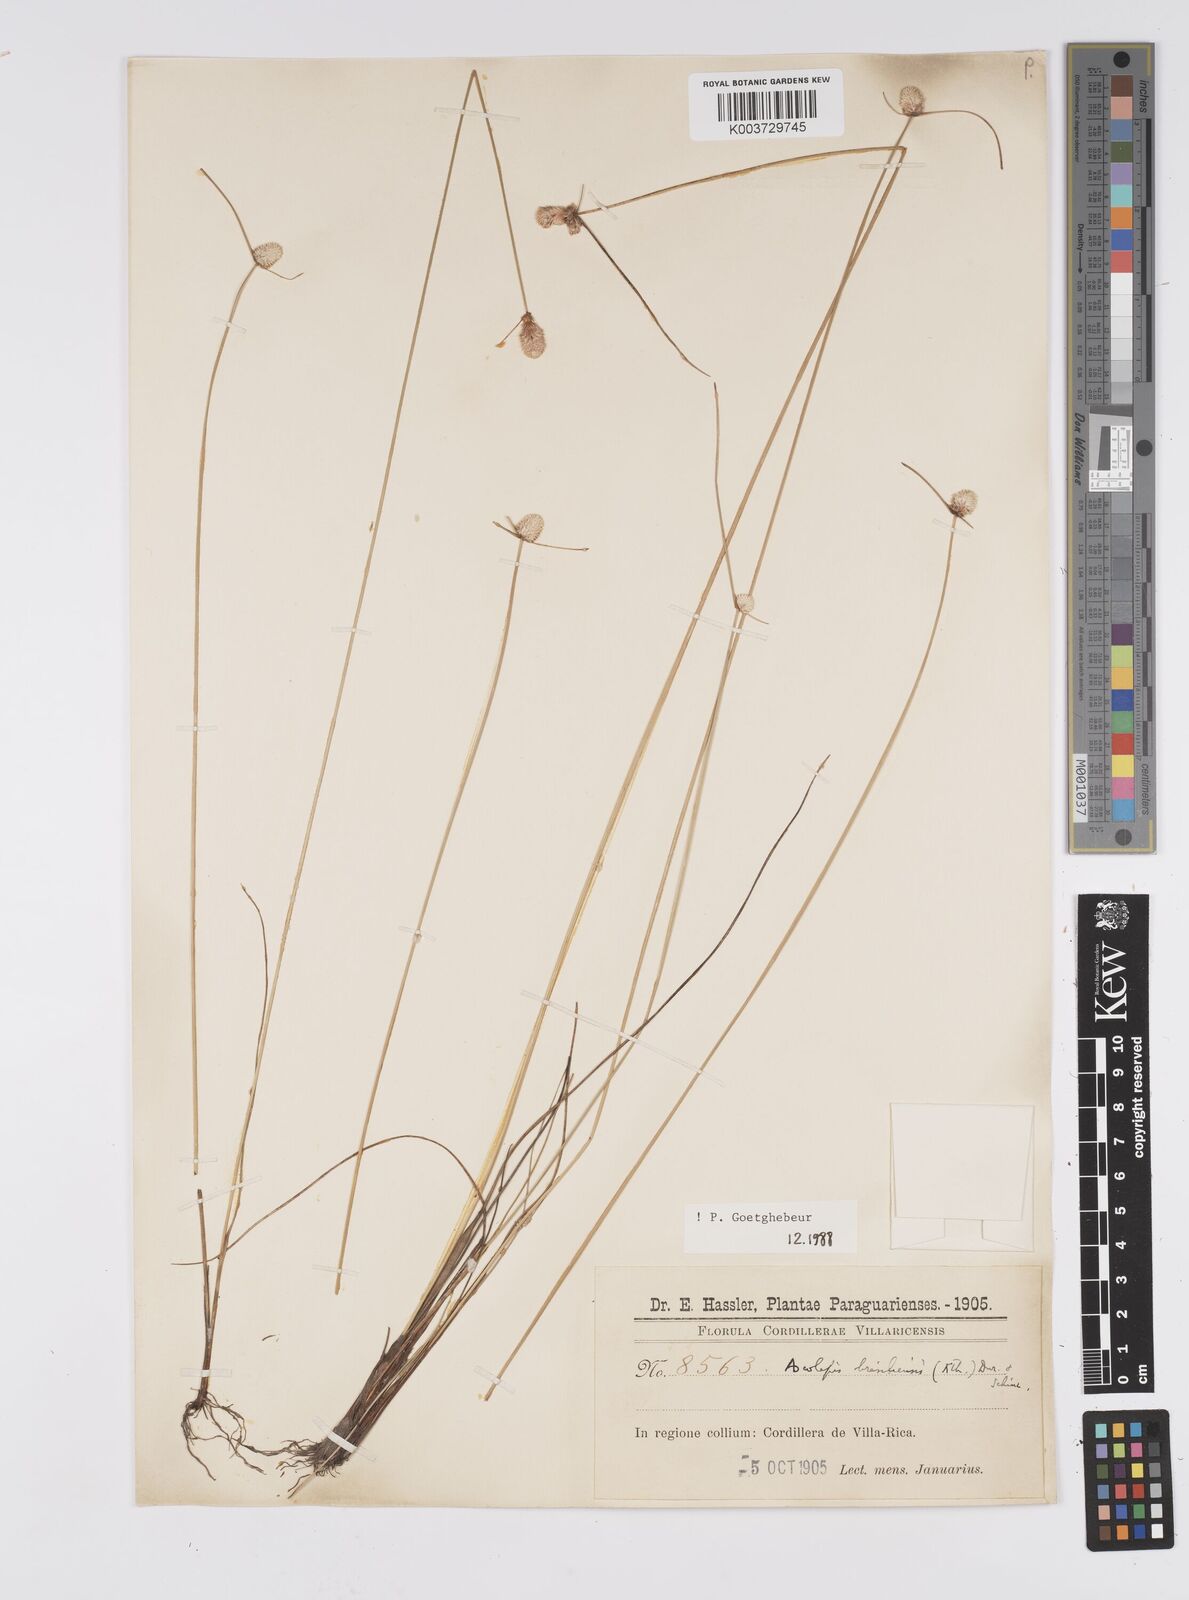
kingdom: Plantae
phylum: Tracheophyta
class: Liliopsida
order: Poales
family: Cyperaceae
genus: Cyperus
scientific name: Cyperus brasiliensis
